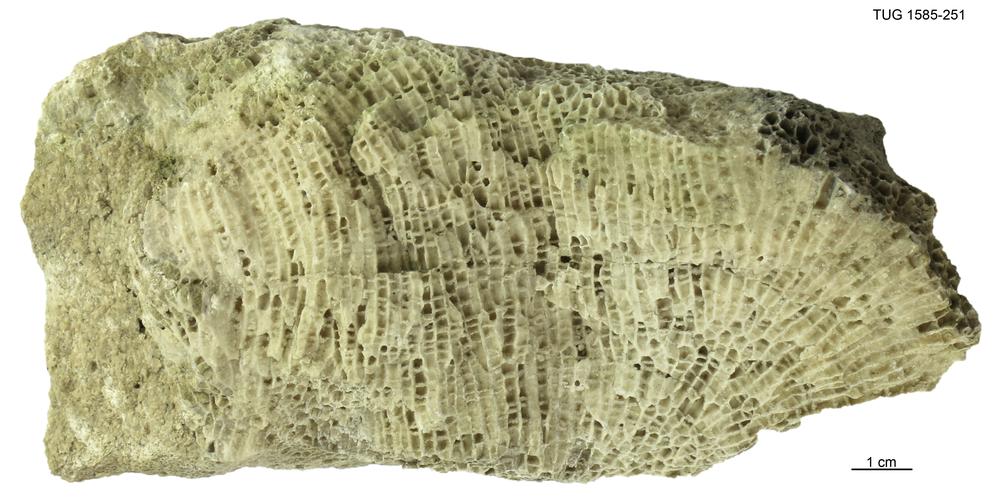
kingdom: Animalia
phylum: Cnidaria
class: Anthozoa
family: Favositidae
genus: Saffordophyllum
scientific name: Saffordophyllum
